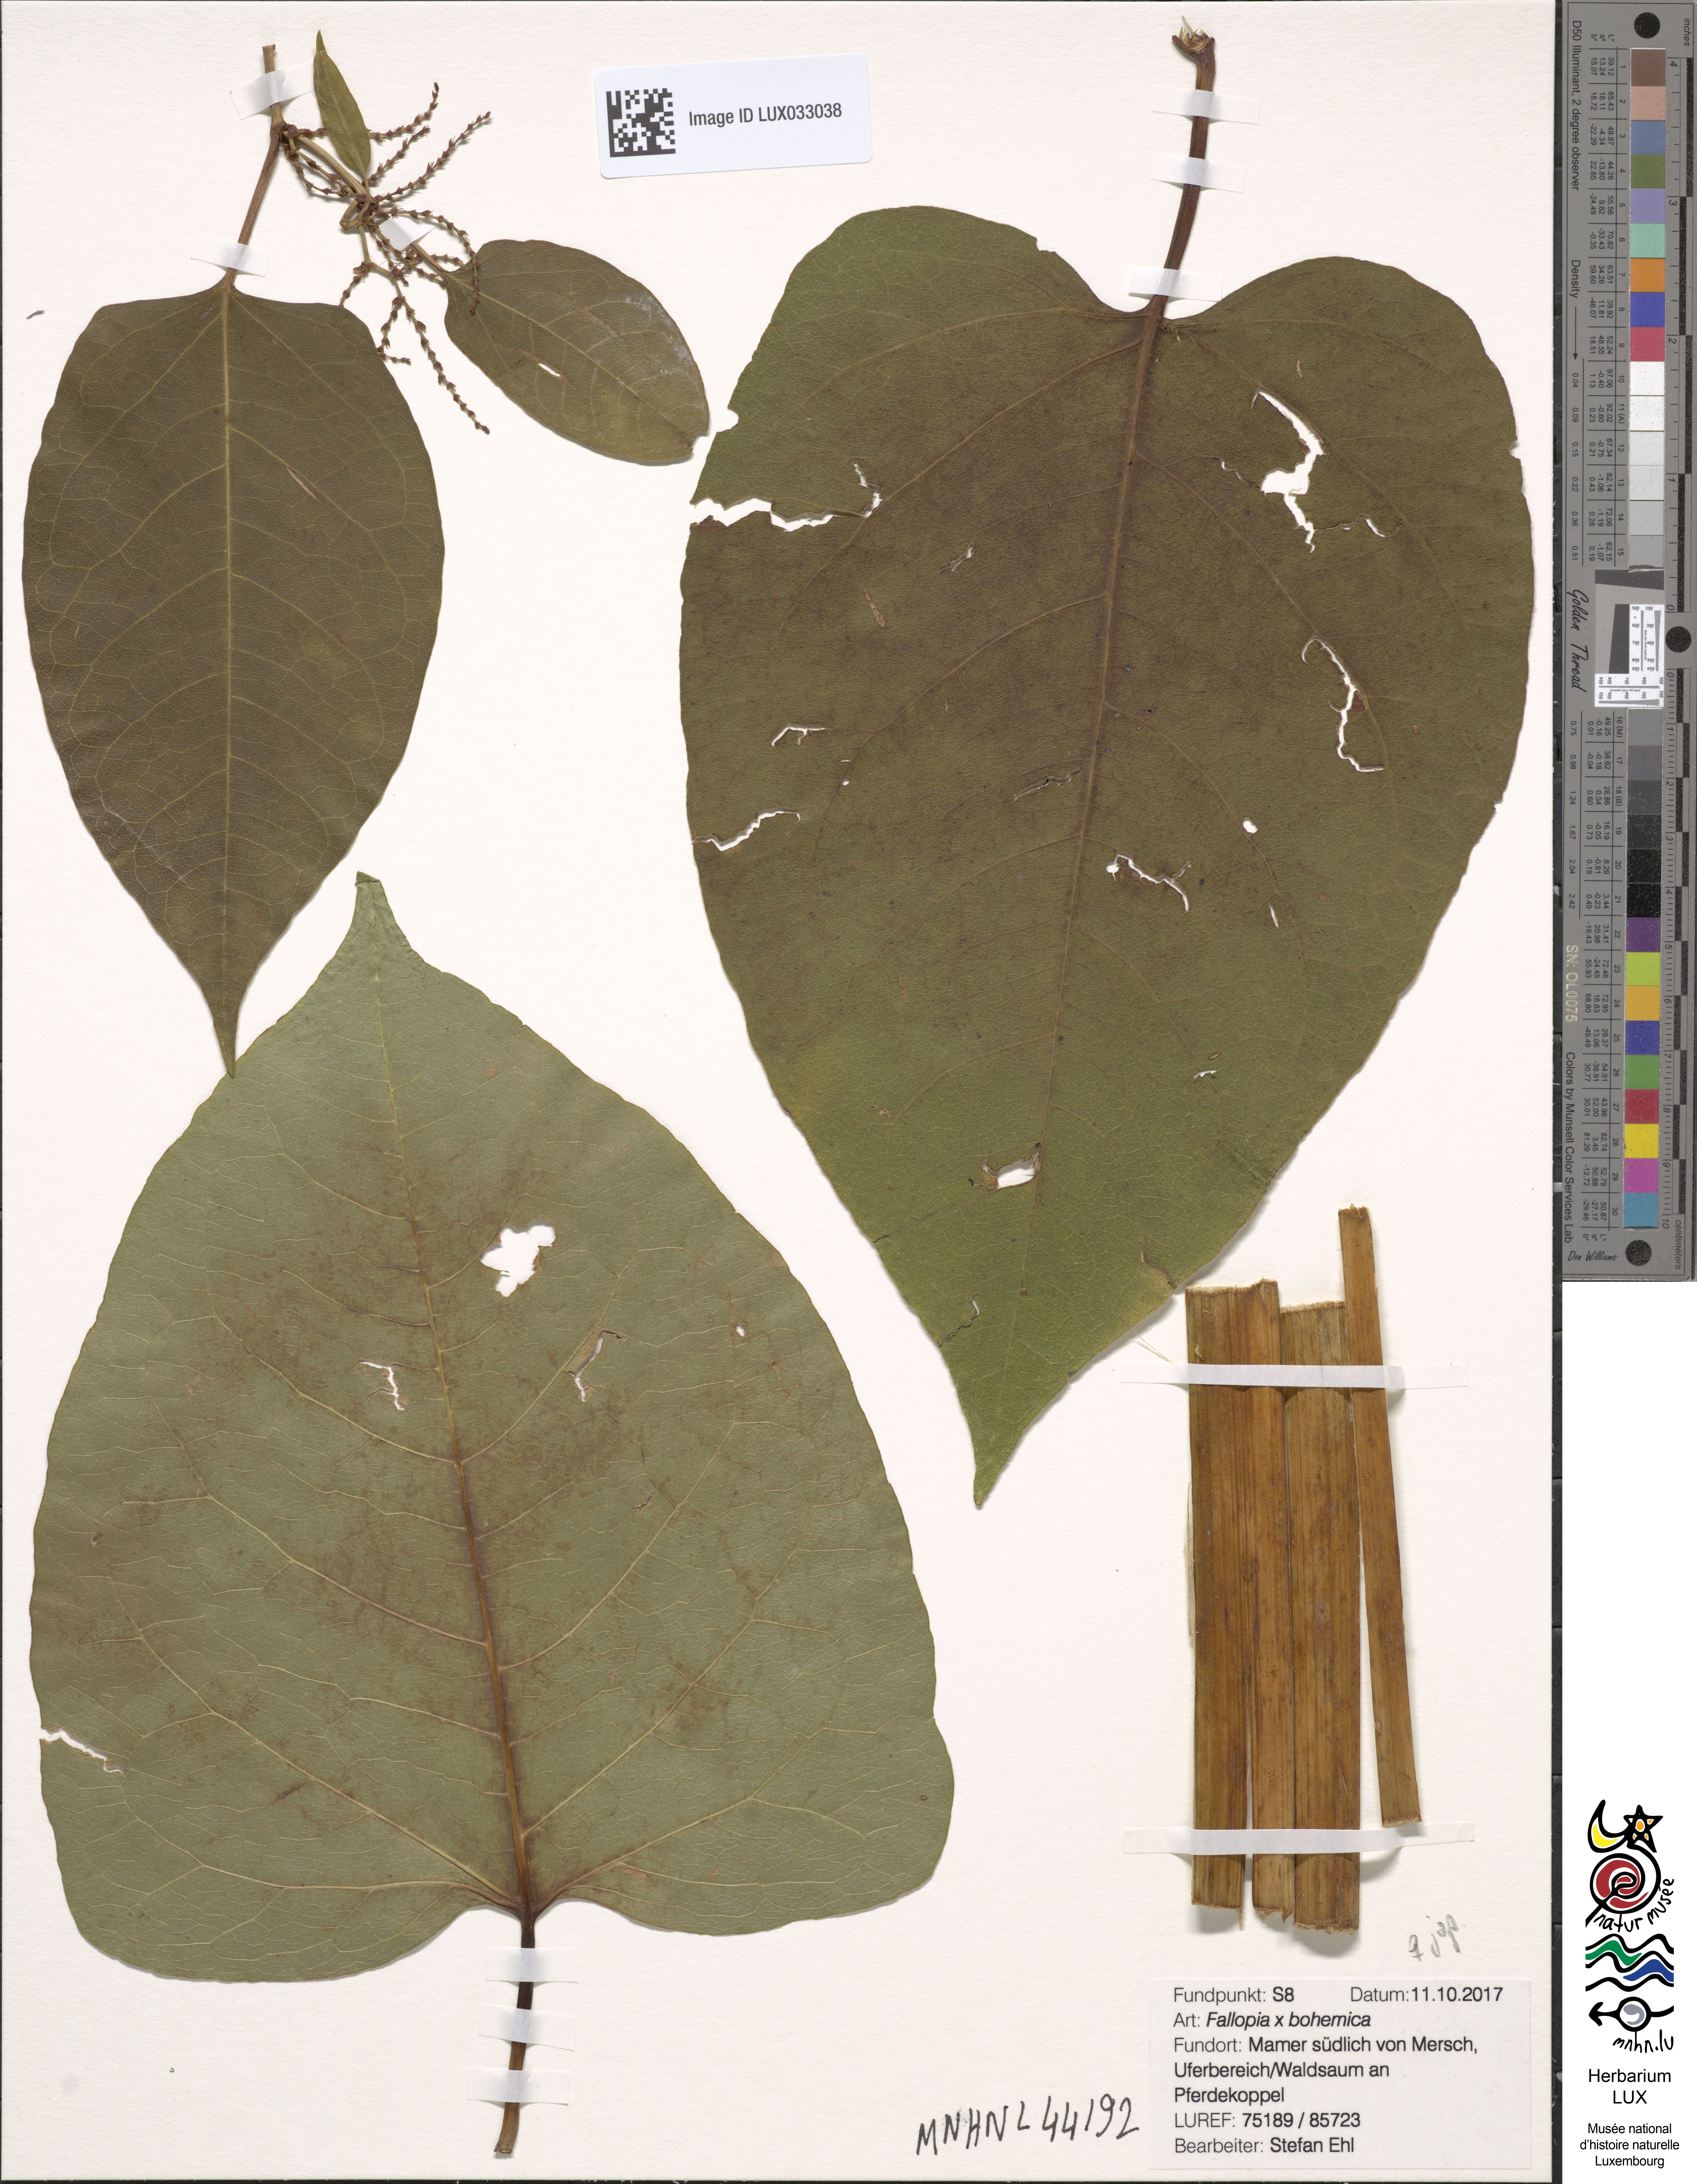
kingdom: Plantae
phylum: Tracheophyta
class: Magnoliopsida
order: Caryophyllales
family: Polygonaceae
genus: Reynoutria
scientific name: Reynoutria bohemica
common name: Bohemian knotweed
